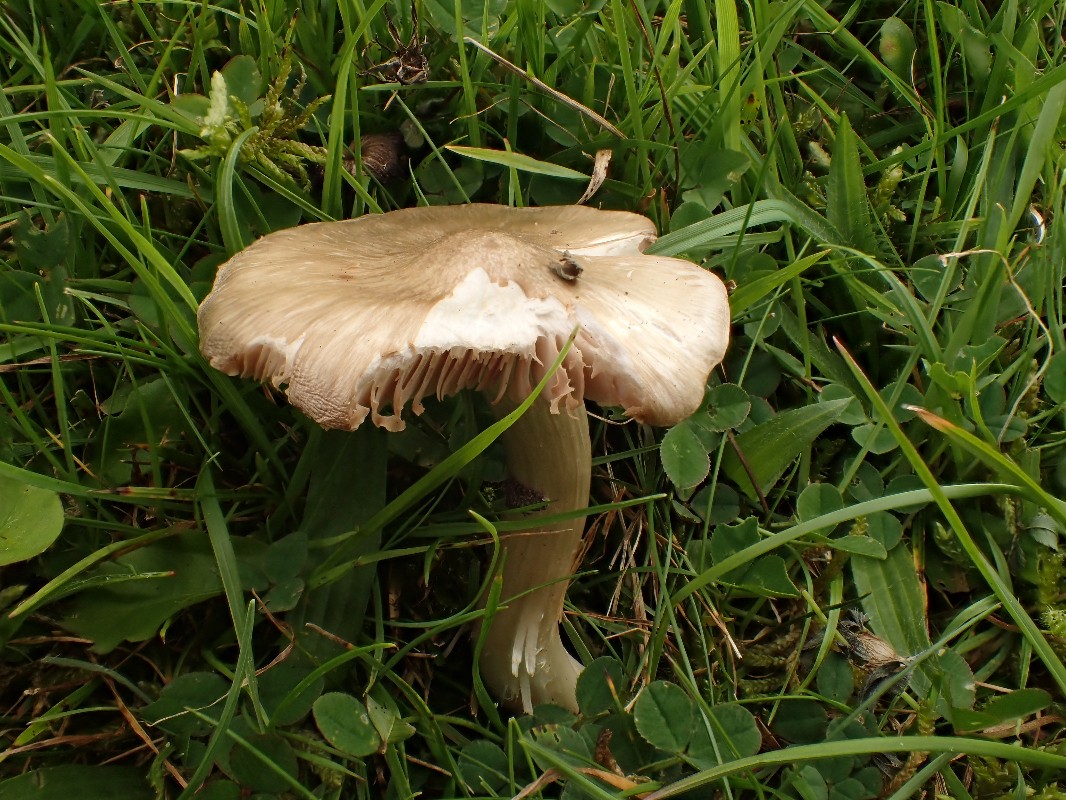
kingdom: Fungi
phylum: Basidiomycota
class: Agaricomycetes
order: Agaricales
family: Entolomataceae
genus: Entoloma
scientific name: Entoloma
